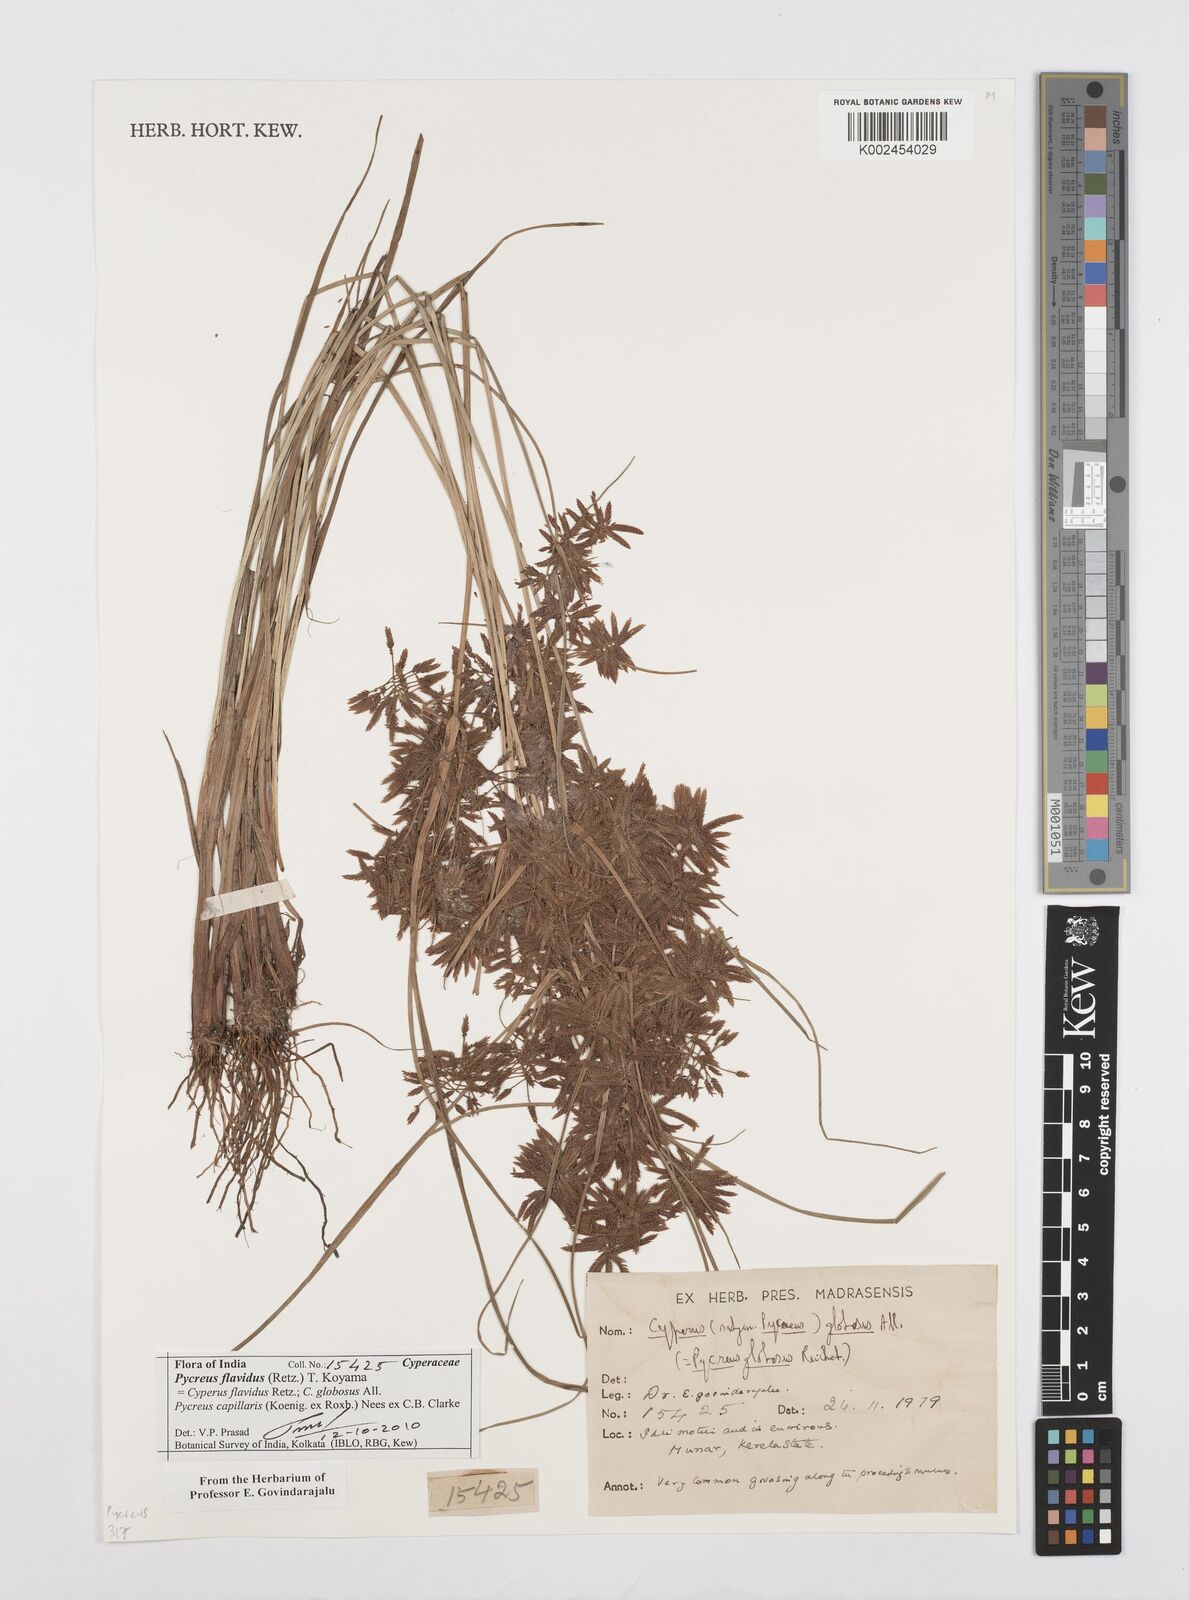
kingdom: Plantae
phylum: Tracheophyta
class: Liliopsida
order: Poales
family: Cyperaceae
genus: Cyperus
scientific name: Cyperus flavidus
